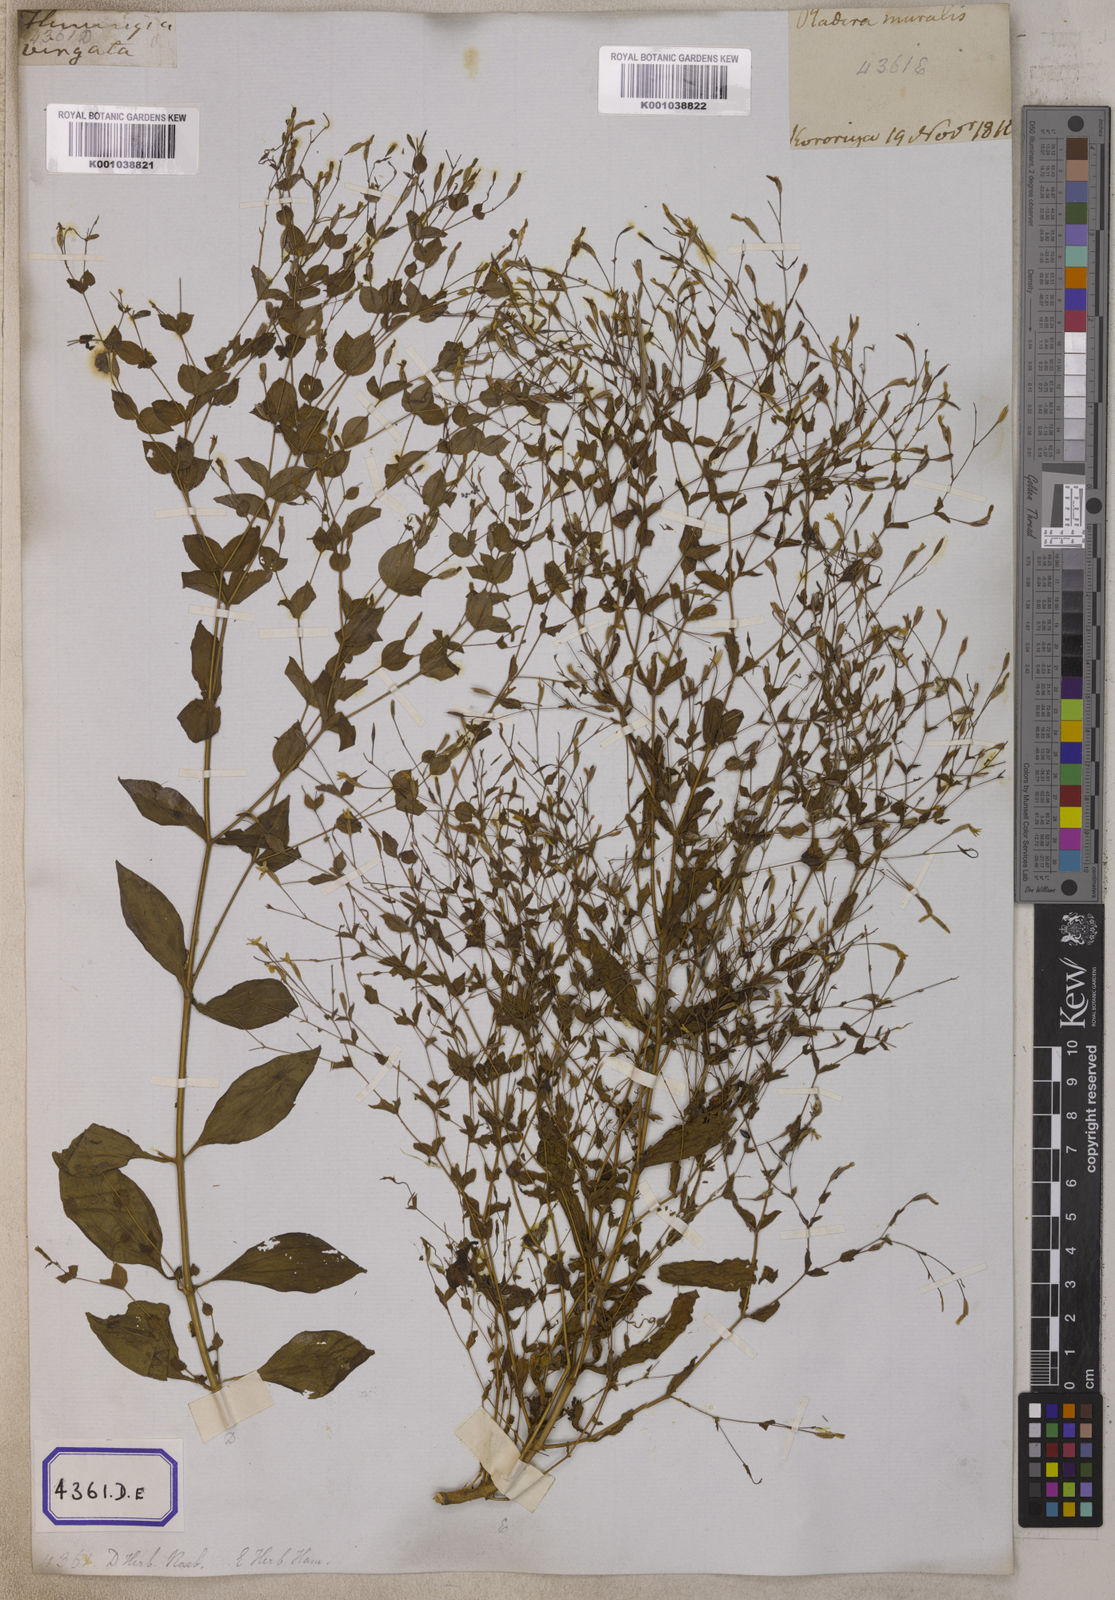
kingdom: Plantae
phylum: Tracheophyta
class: Magnoliopsida
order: Gentianales
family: Gentianaceae
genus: Canscora
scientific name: Canscora
